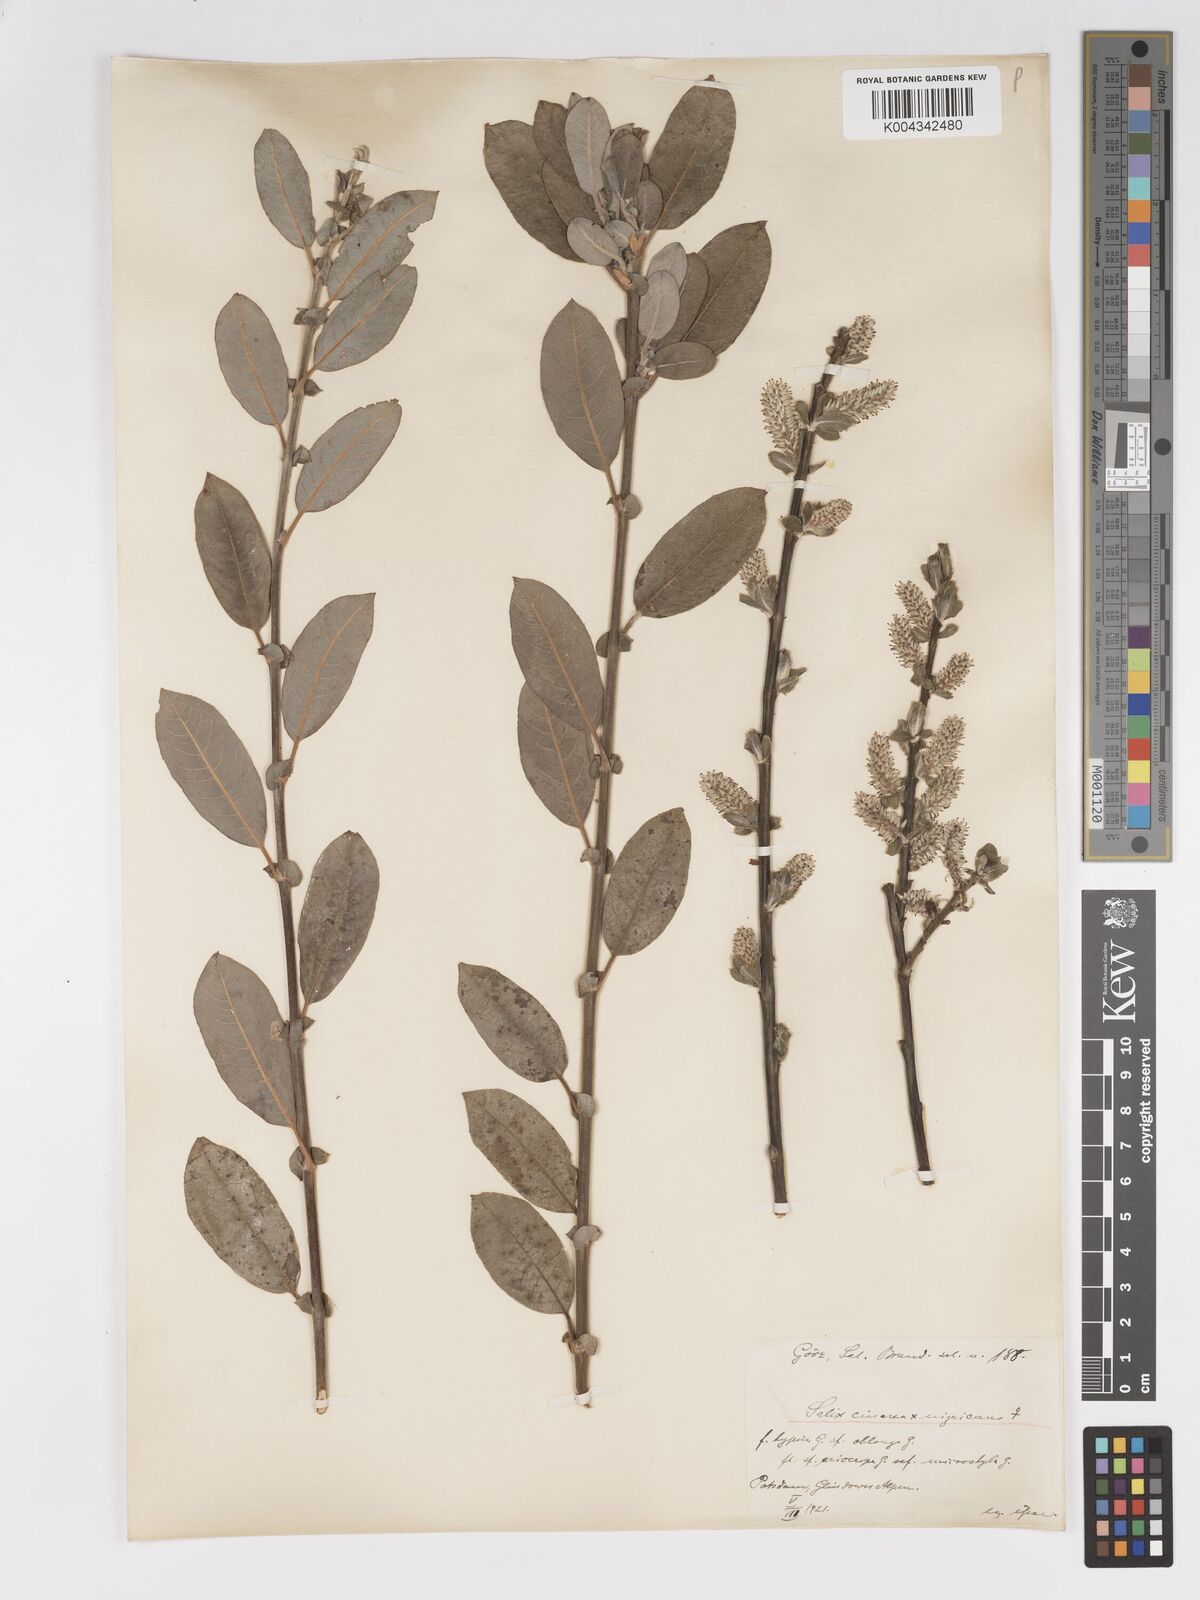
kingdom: Plantae
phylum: Tracheophyta
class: Magnoliopsida
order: Malpighiales
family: Salicaceae
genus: Salix
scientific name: Salix
